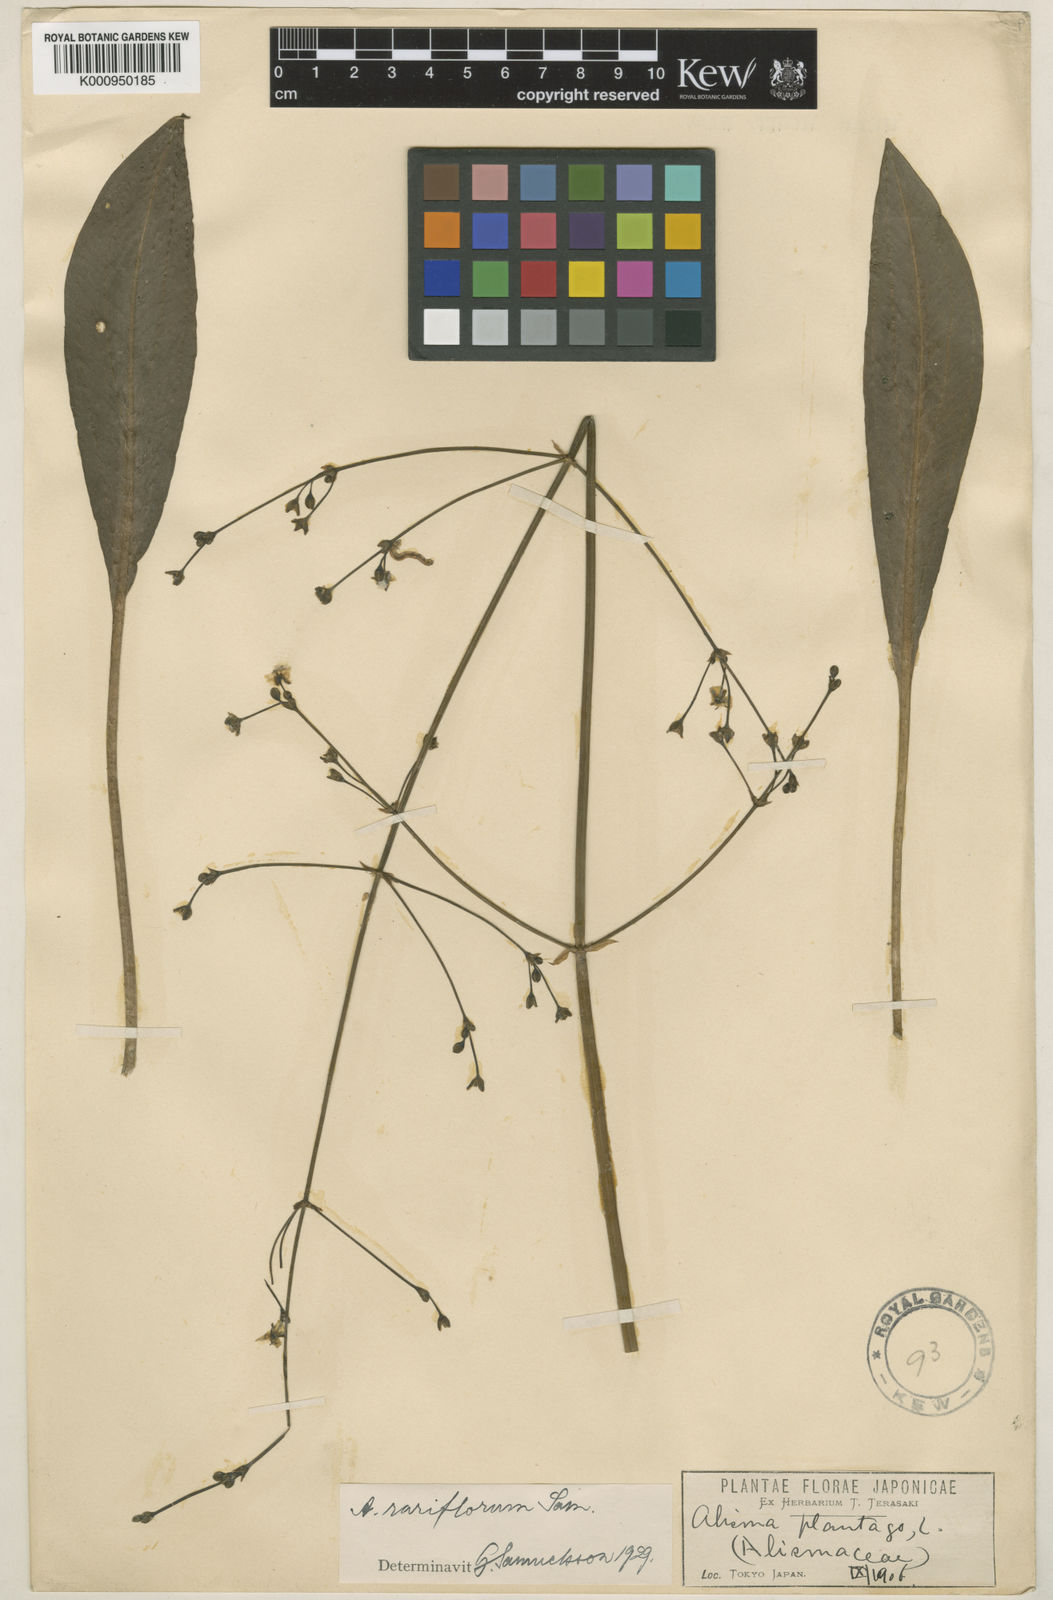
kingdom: Plantae
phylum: Tracheophyta
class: Liliopsida
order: Alismatales
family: Alismataceae
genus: Alisma
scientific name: Alisma rariflorum
